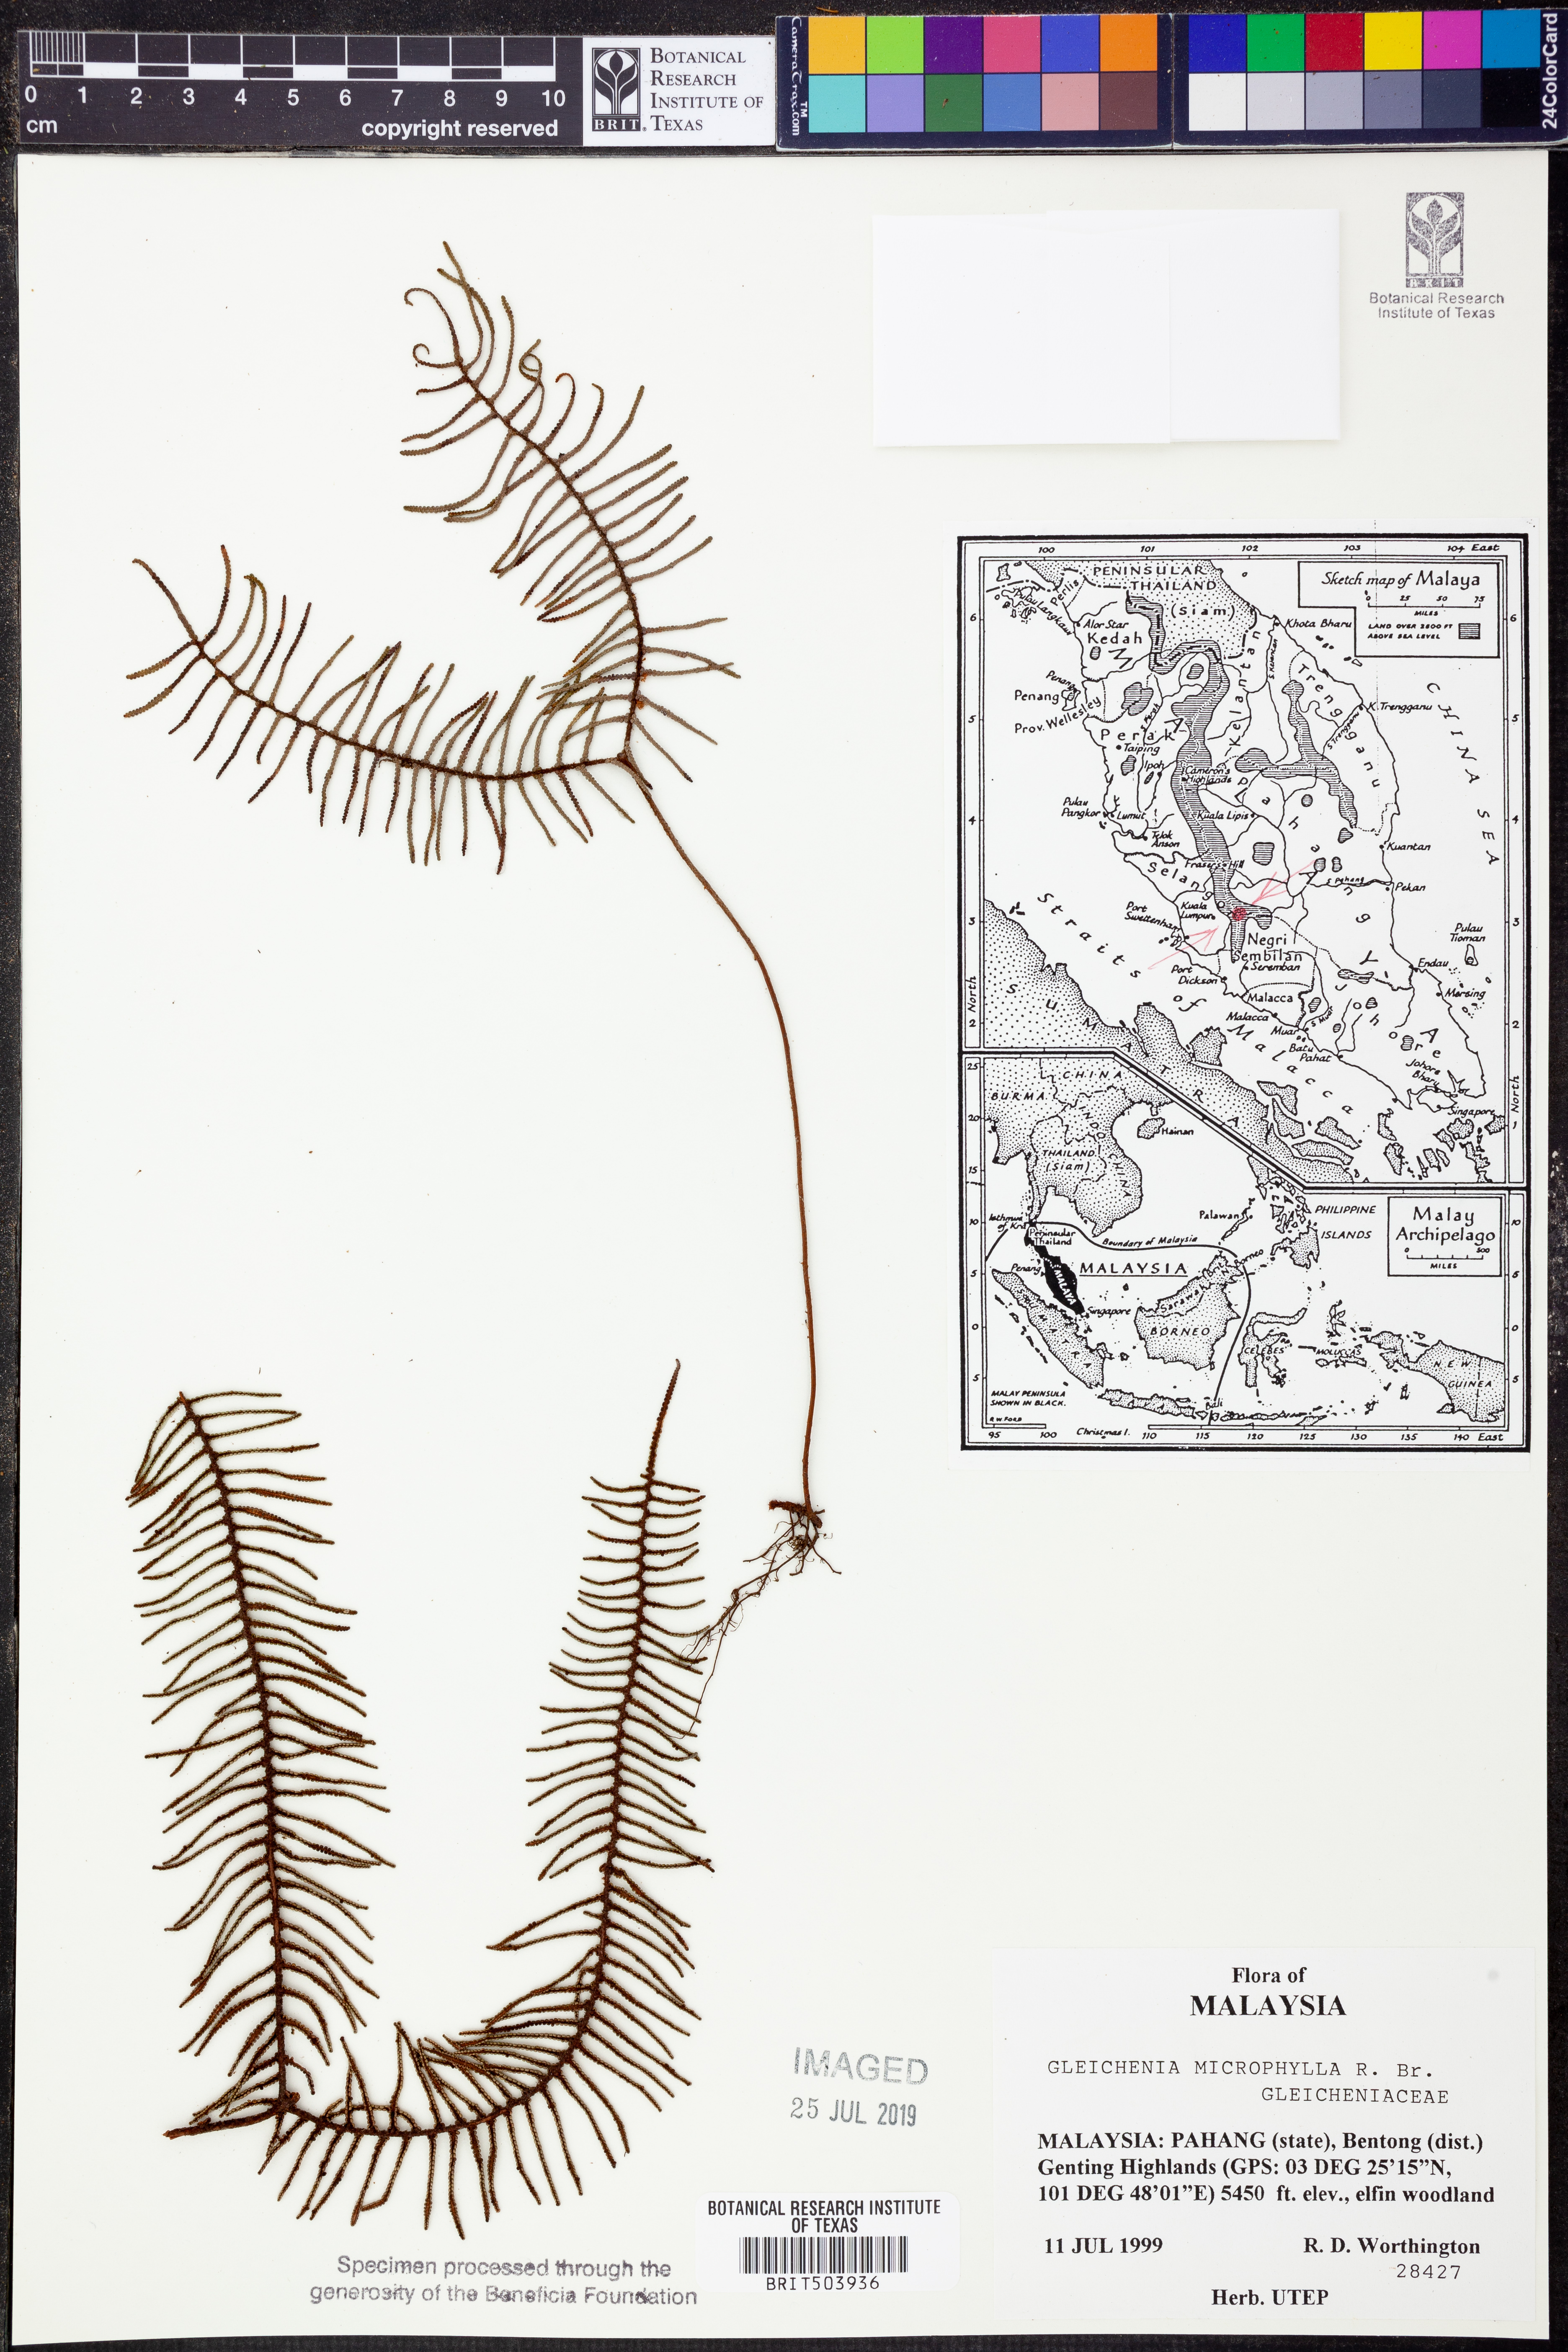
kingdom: Plantae
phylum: Tracheophyta
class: Polypodiopsida
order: Gleicheniales
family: Gleicheniaceae
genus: Gleichenia
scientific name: Gleichenia microphylla
